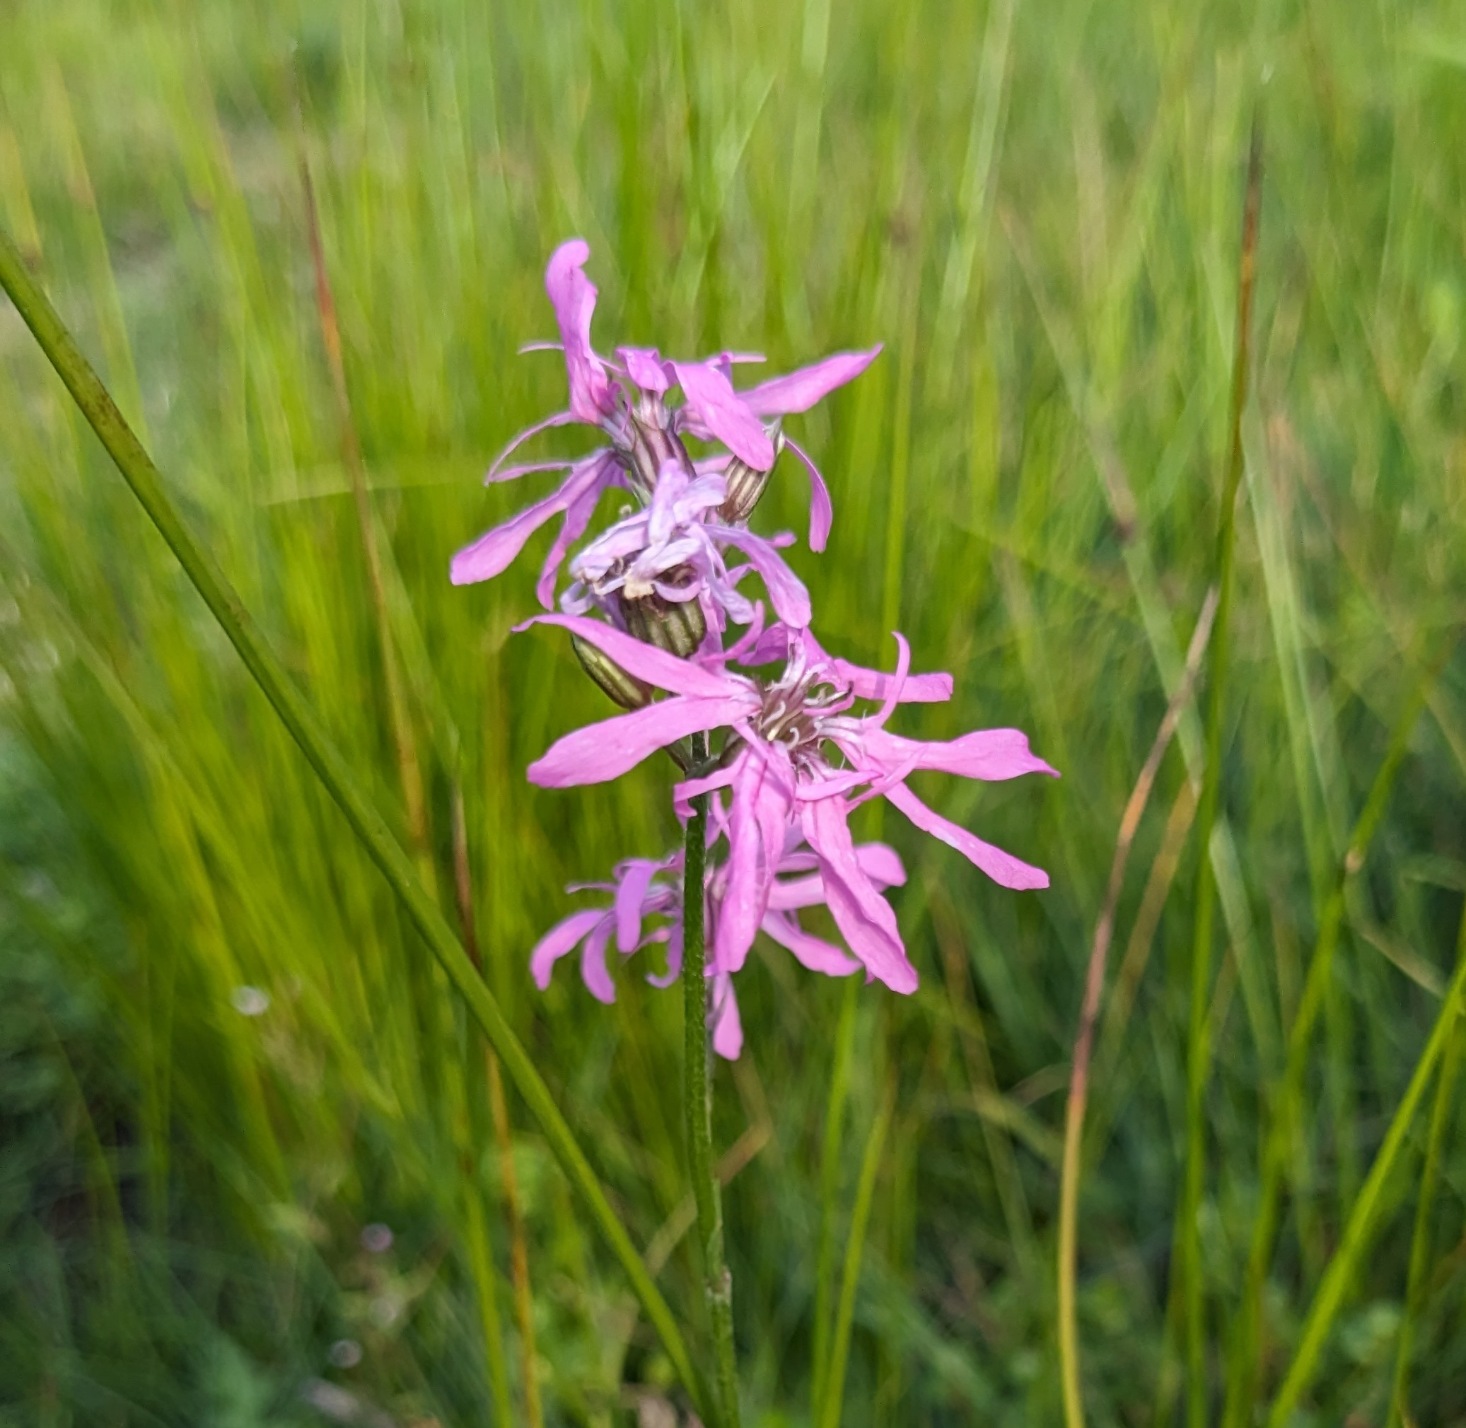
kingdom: Plantae
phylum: Tracheophyta
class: Magnoliopsida
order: Caryophyllales
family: Caryophyllaceae
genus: Silene
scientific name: Silene flos-cuculi
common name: Trævlekrone
